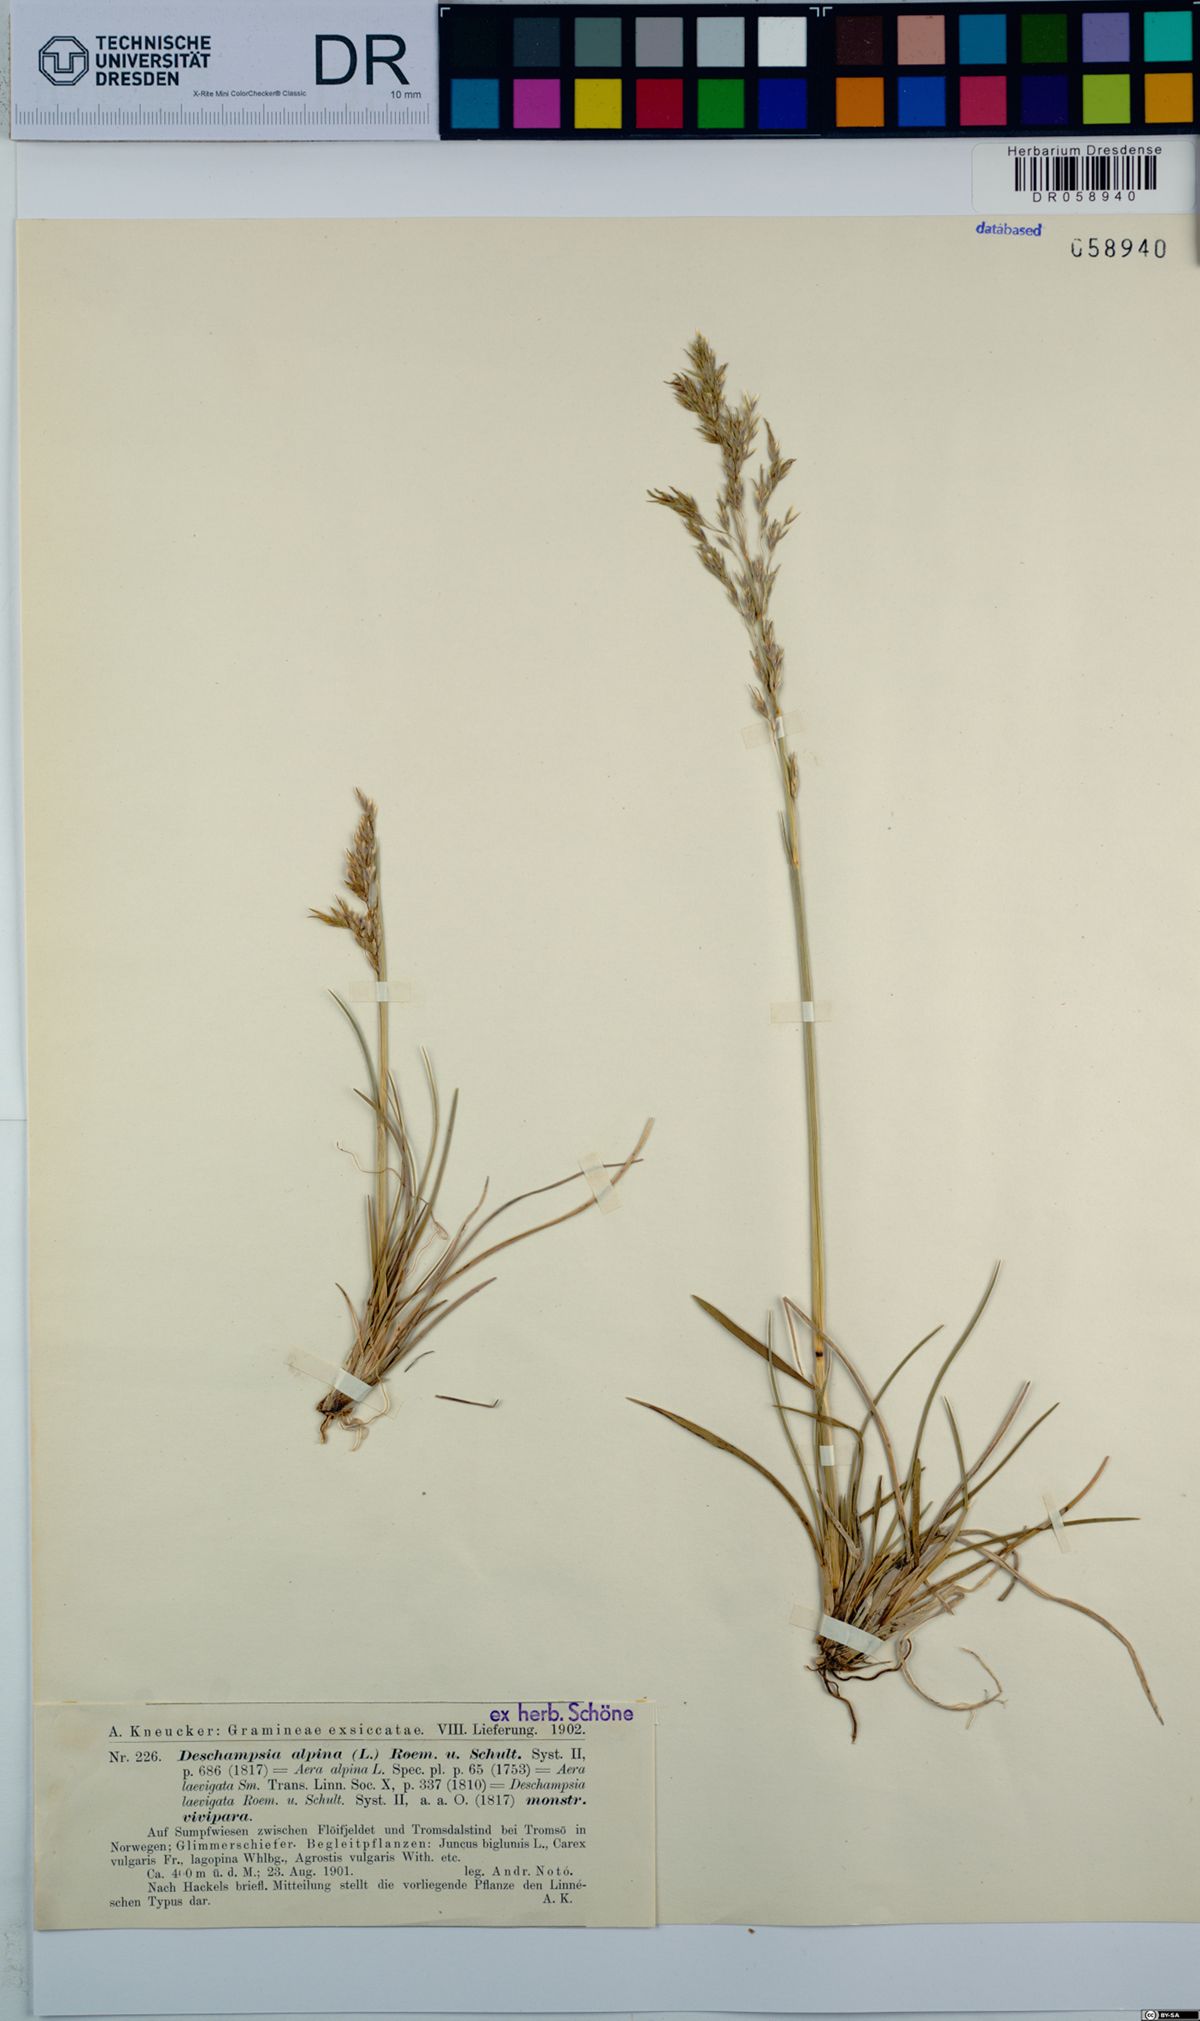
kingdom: Plantae
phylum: Tracheophyta
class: Liliopsida
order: Poales
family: Poaceae
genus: Deschampsia
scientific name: Deschampsia cespitosa
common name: Tufted hair-grass
